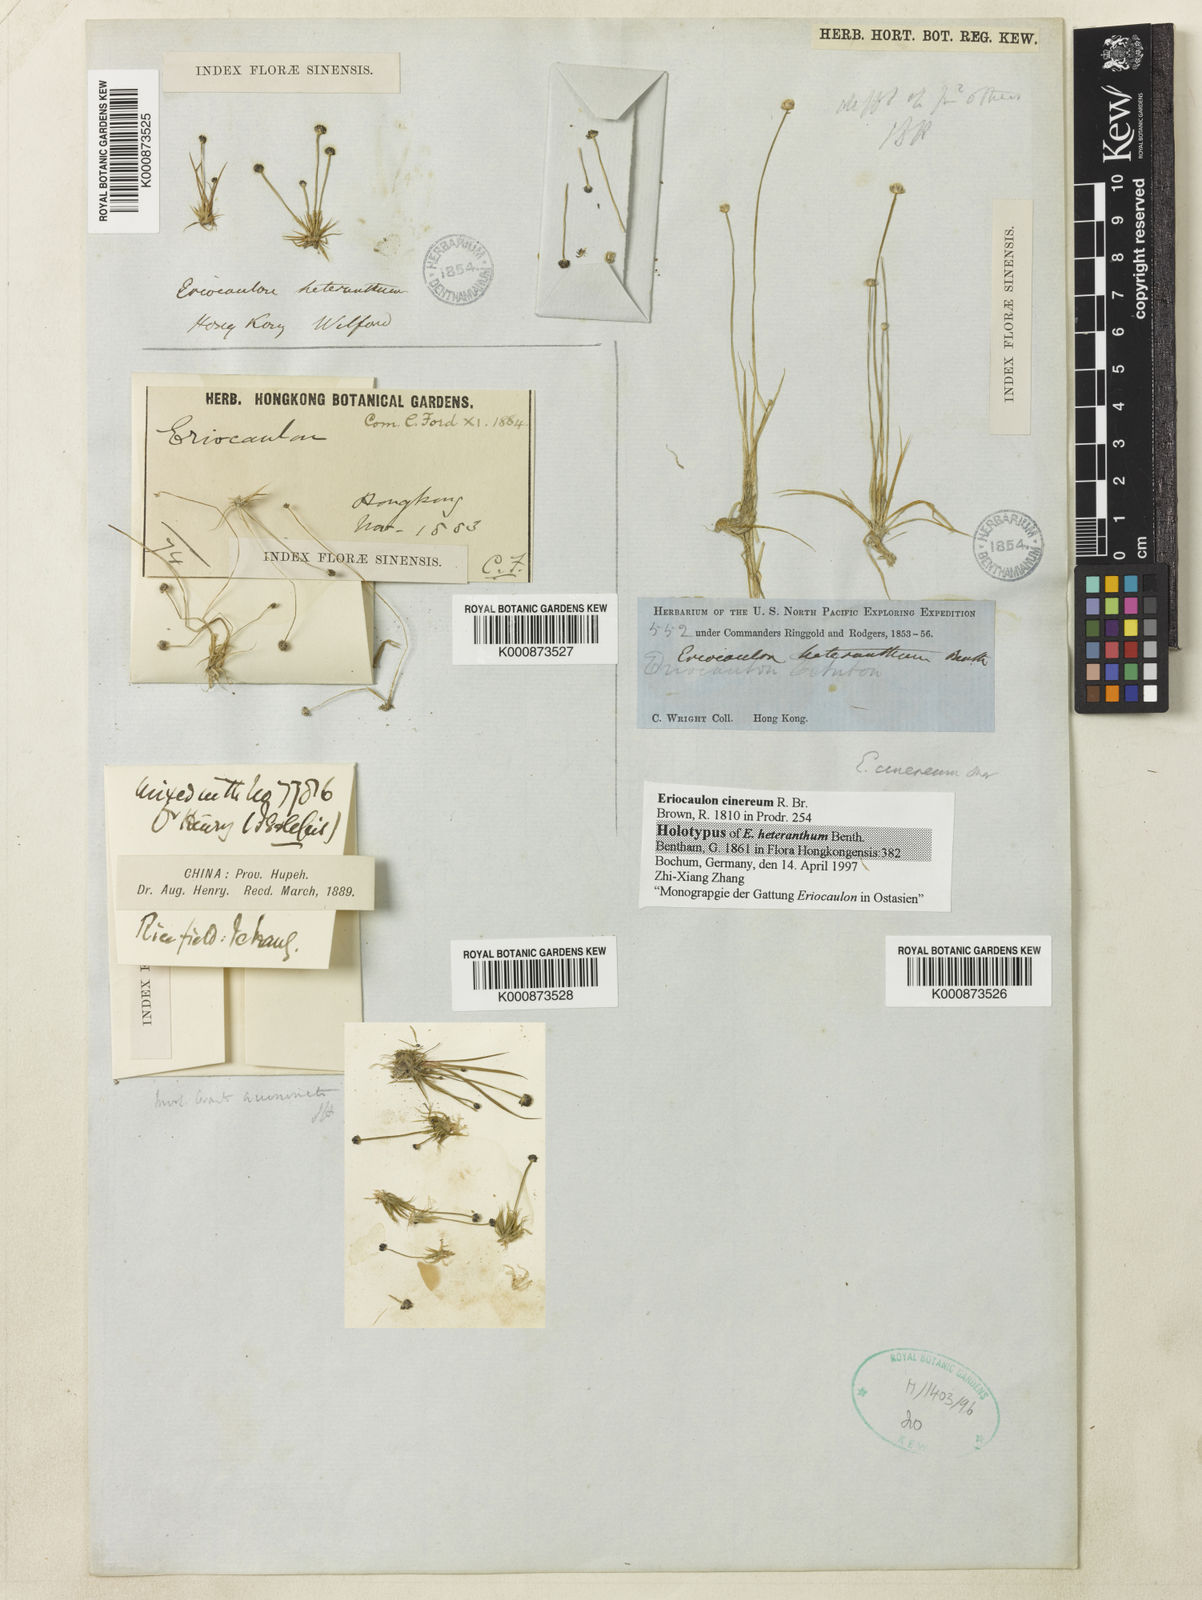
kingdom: Plantae
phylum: Tracheophyta
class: Liliopsida
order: Poales
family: Eriocaulaceae
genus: Eriocaulon
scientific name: Eriocaulon
